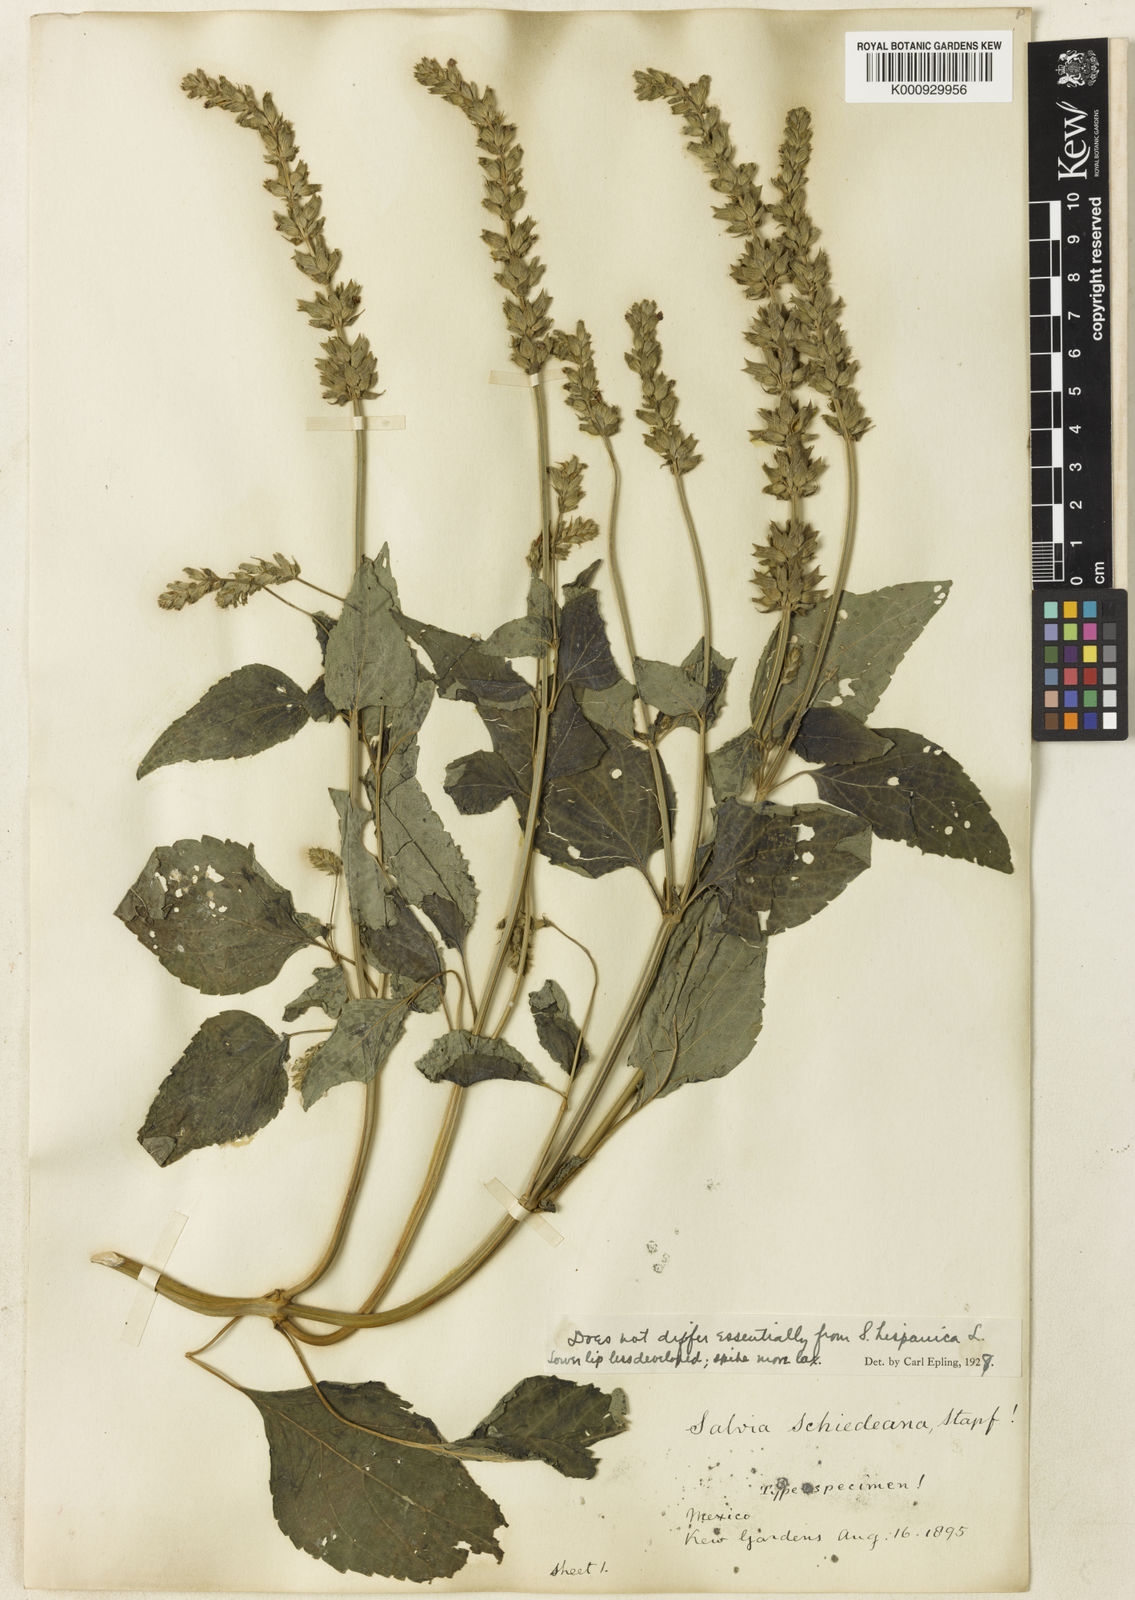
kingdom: Plantae
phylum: Tracheophyta
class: Magnoliopsida
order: Lamiales
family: Lamiaceae
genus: Salvia
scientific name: Salvia hispanica
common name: Chia
